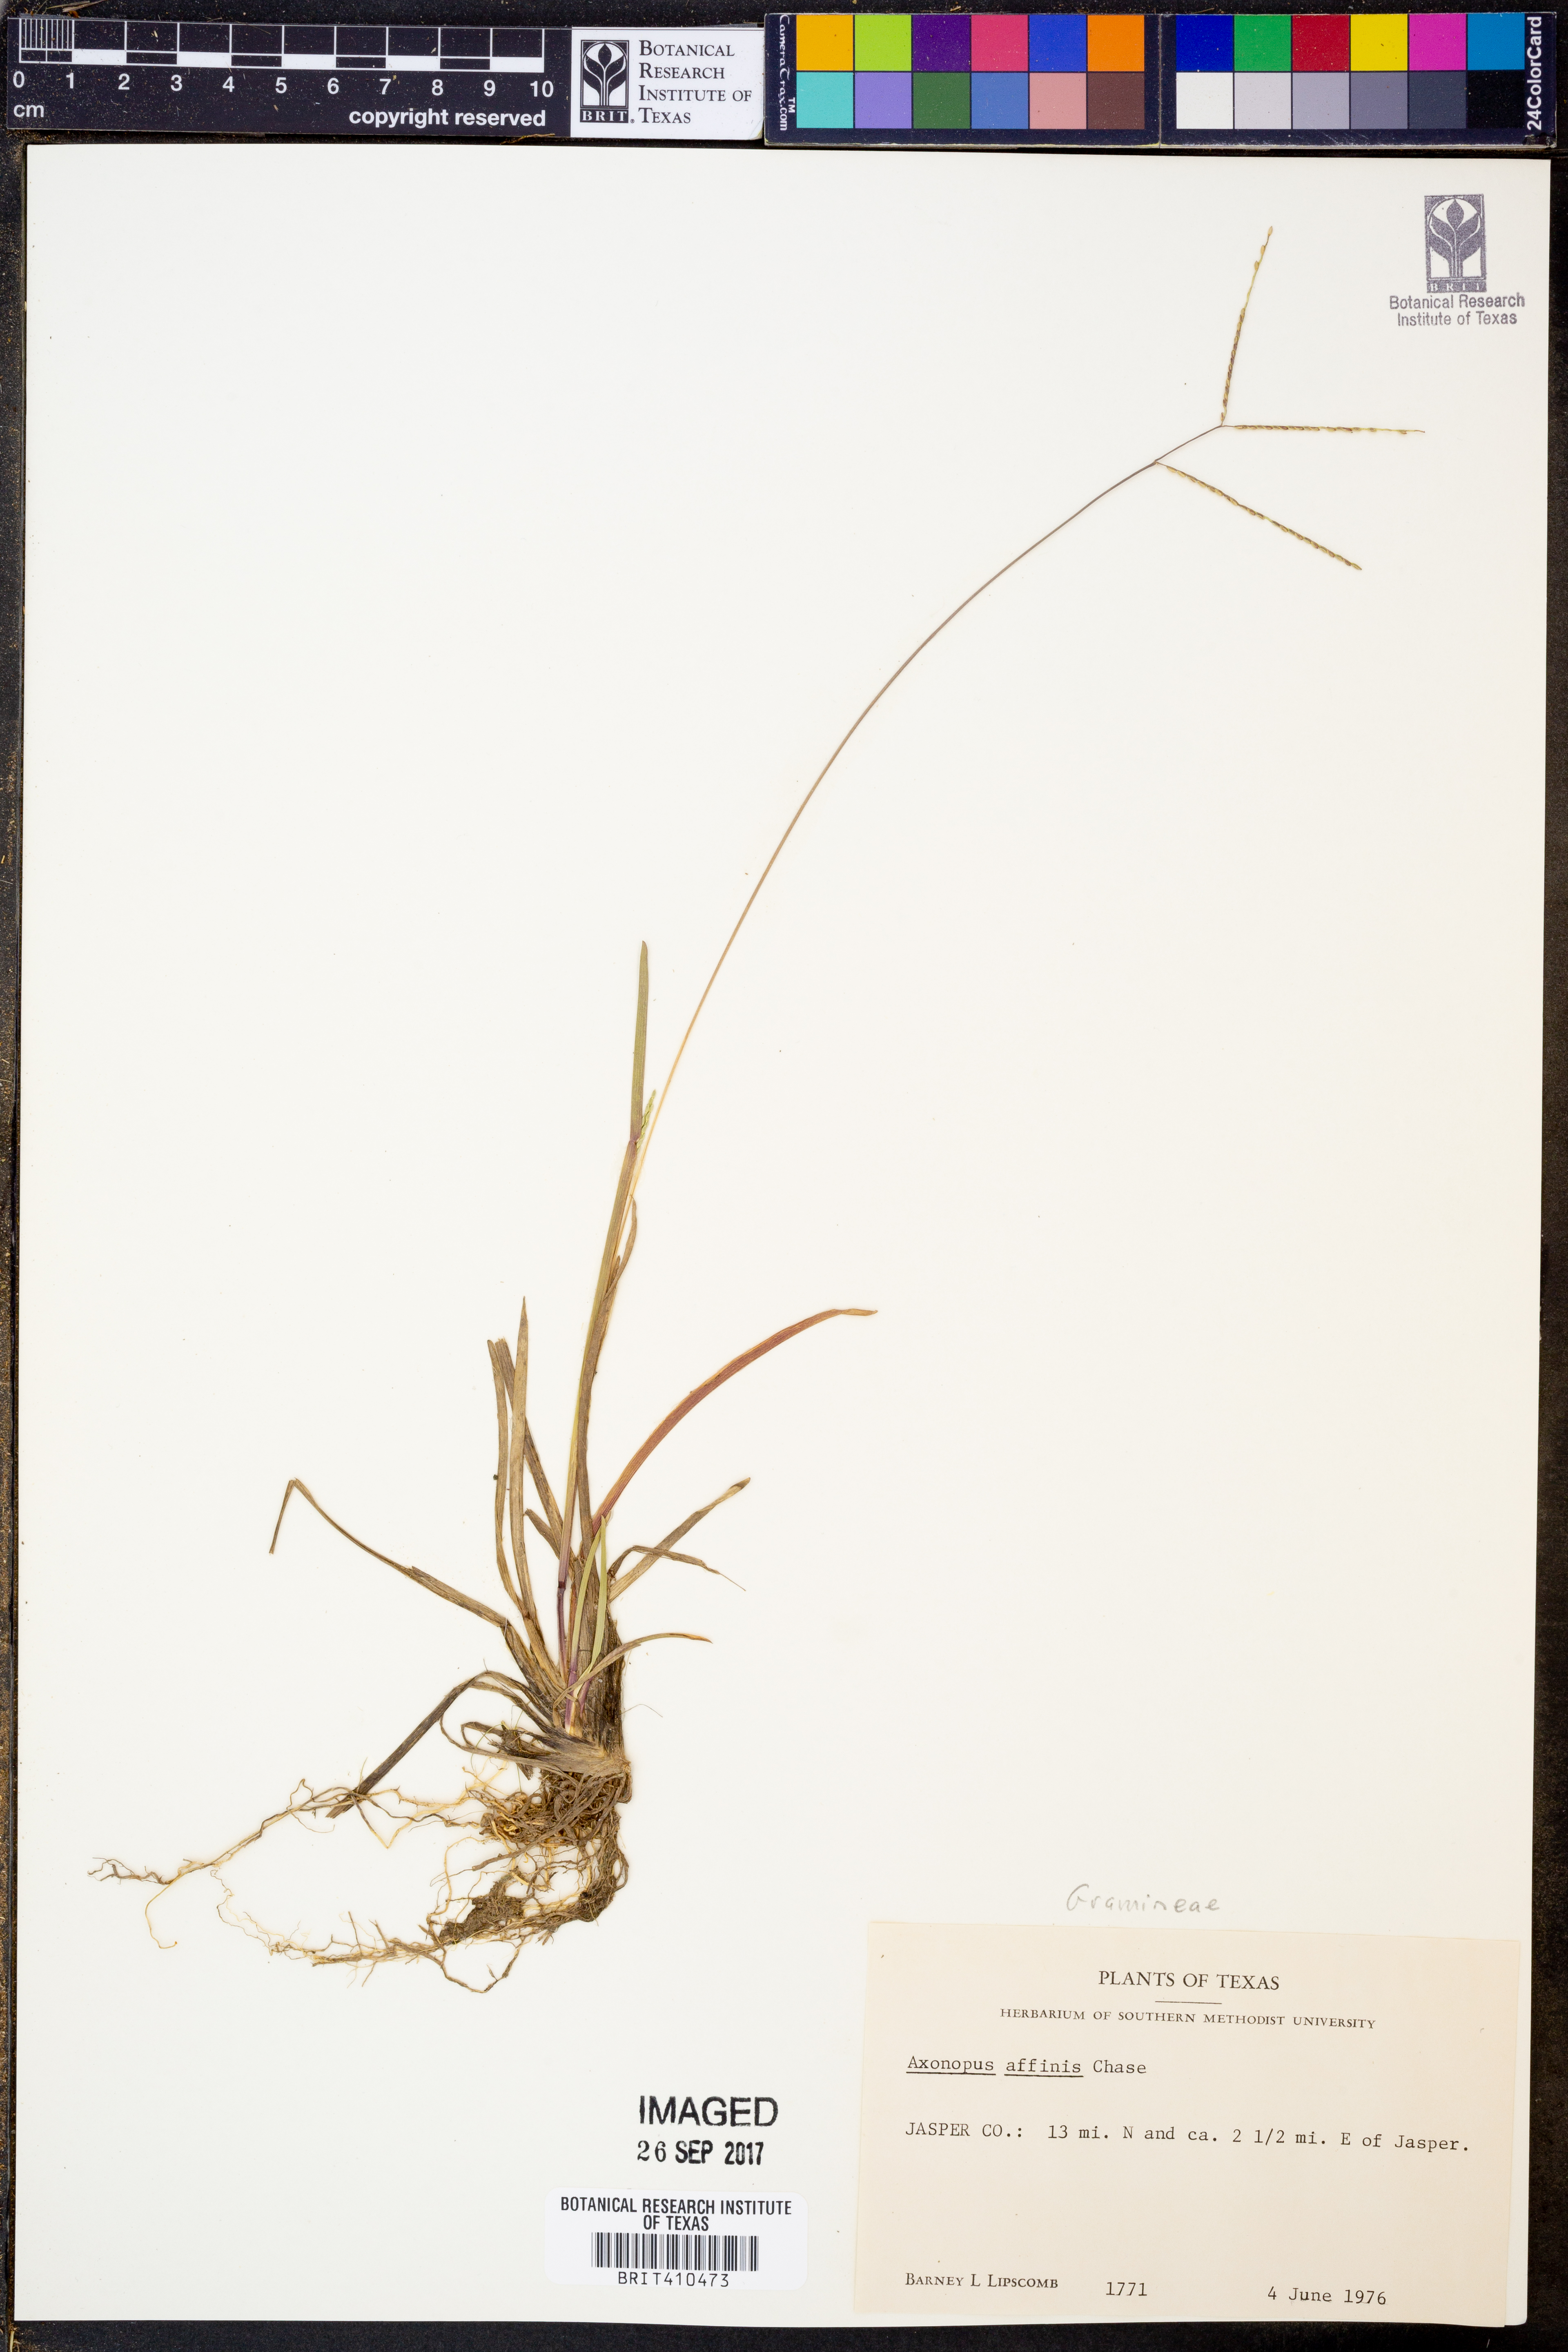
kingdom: Plantae
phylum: Tracheophyta
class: Liliopsida
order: Poales
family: Poaceae
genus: Axonopus
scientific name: Axonopus fissifolius
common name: Common carpetgrass
